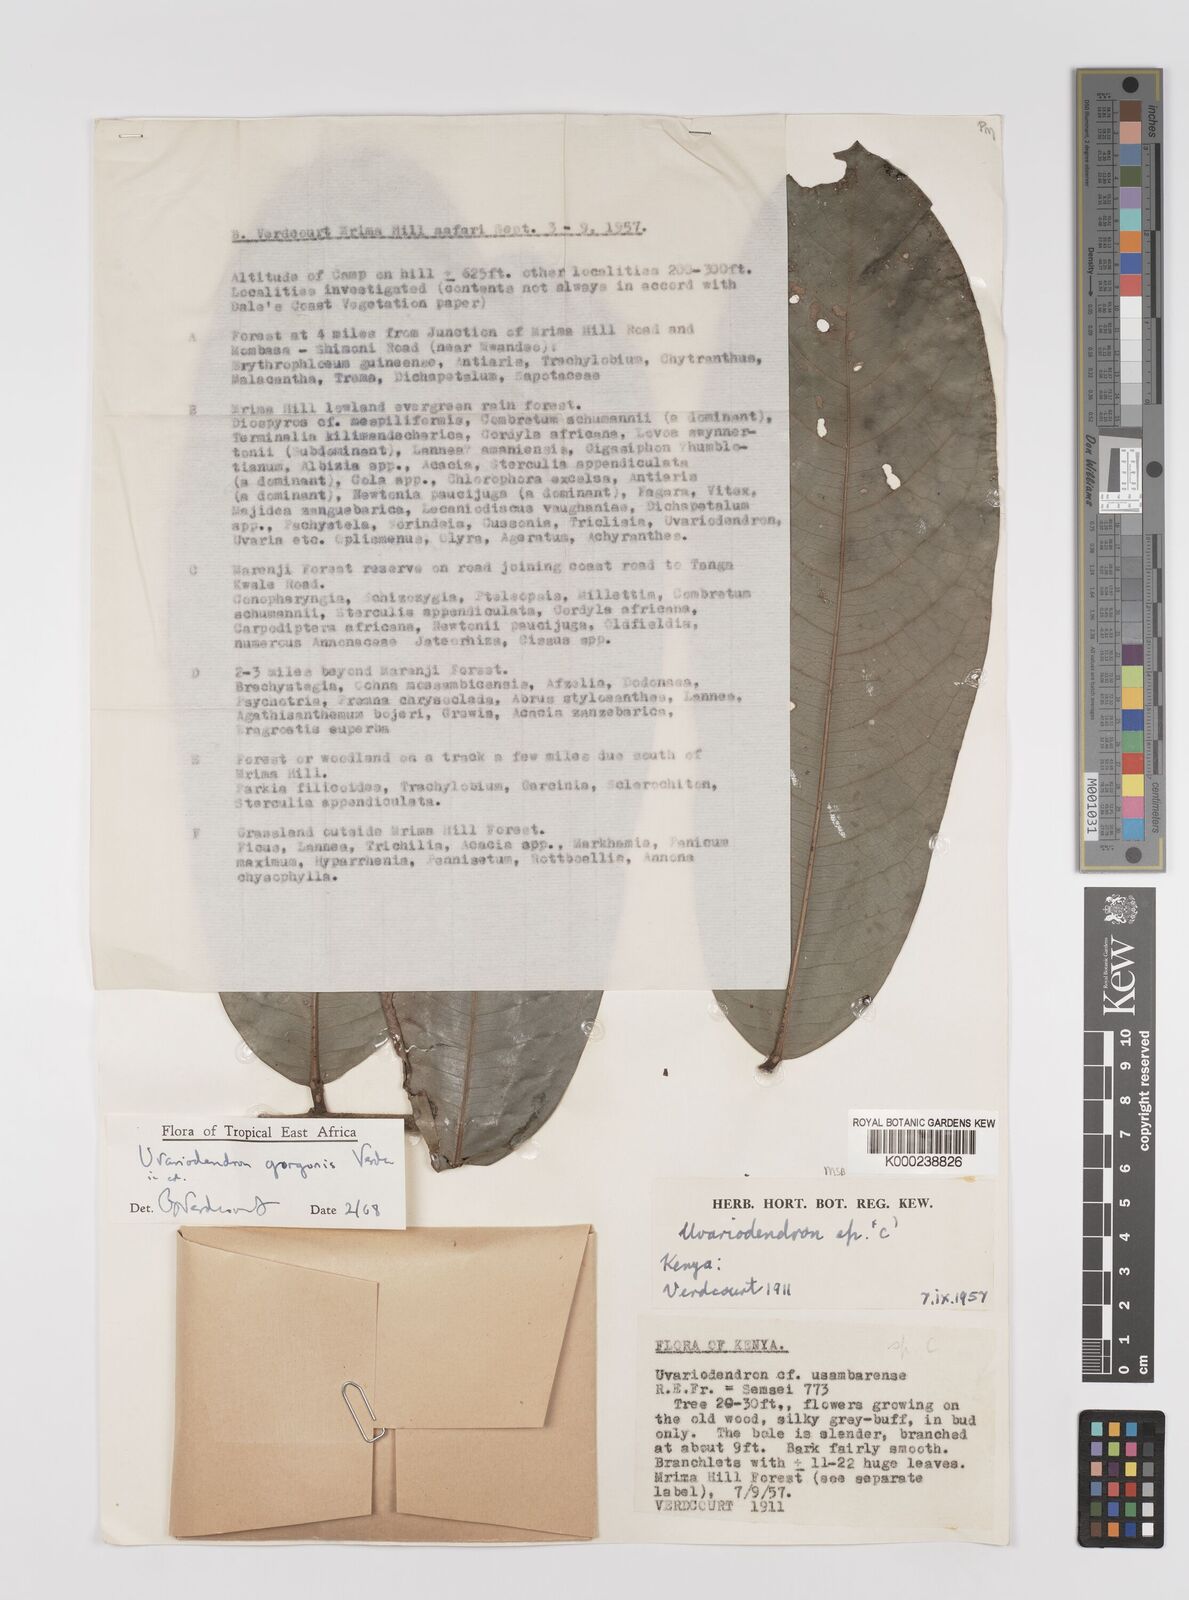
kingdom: Plantae
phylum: Tracheophyta
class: Magnoliopsida
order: Magnoliales
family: Annonaceae
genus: Uvariodendron
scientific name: Uvariodendron gorgonis
